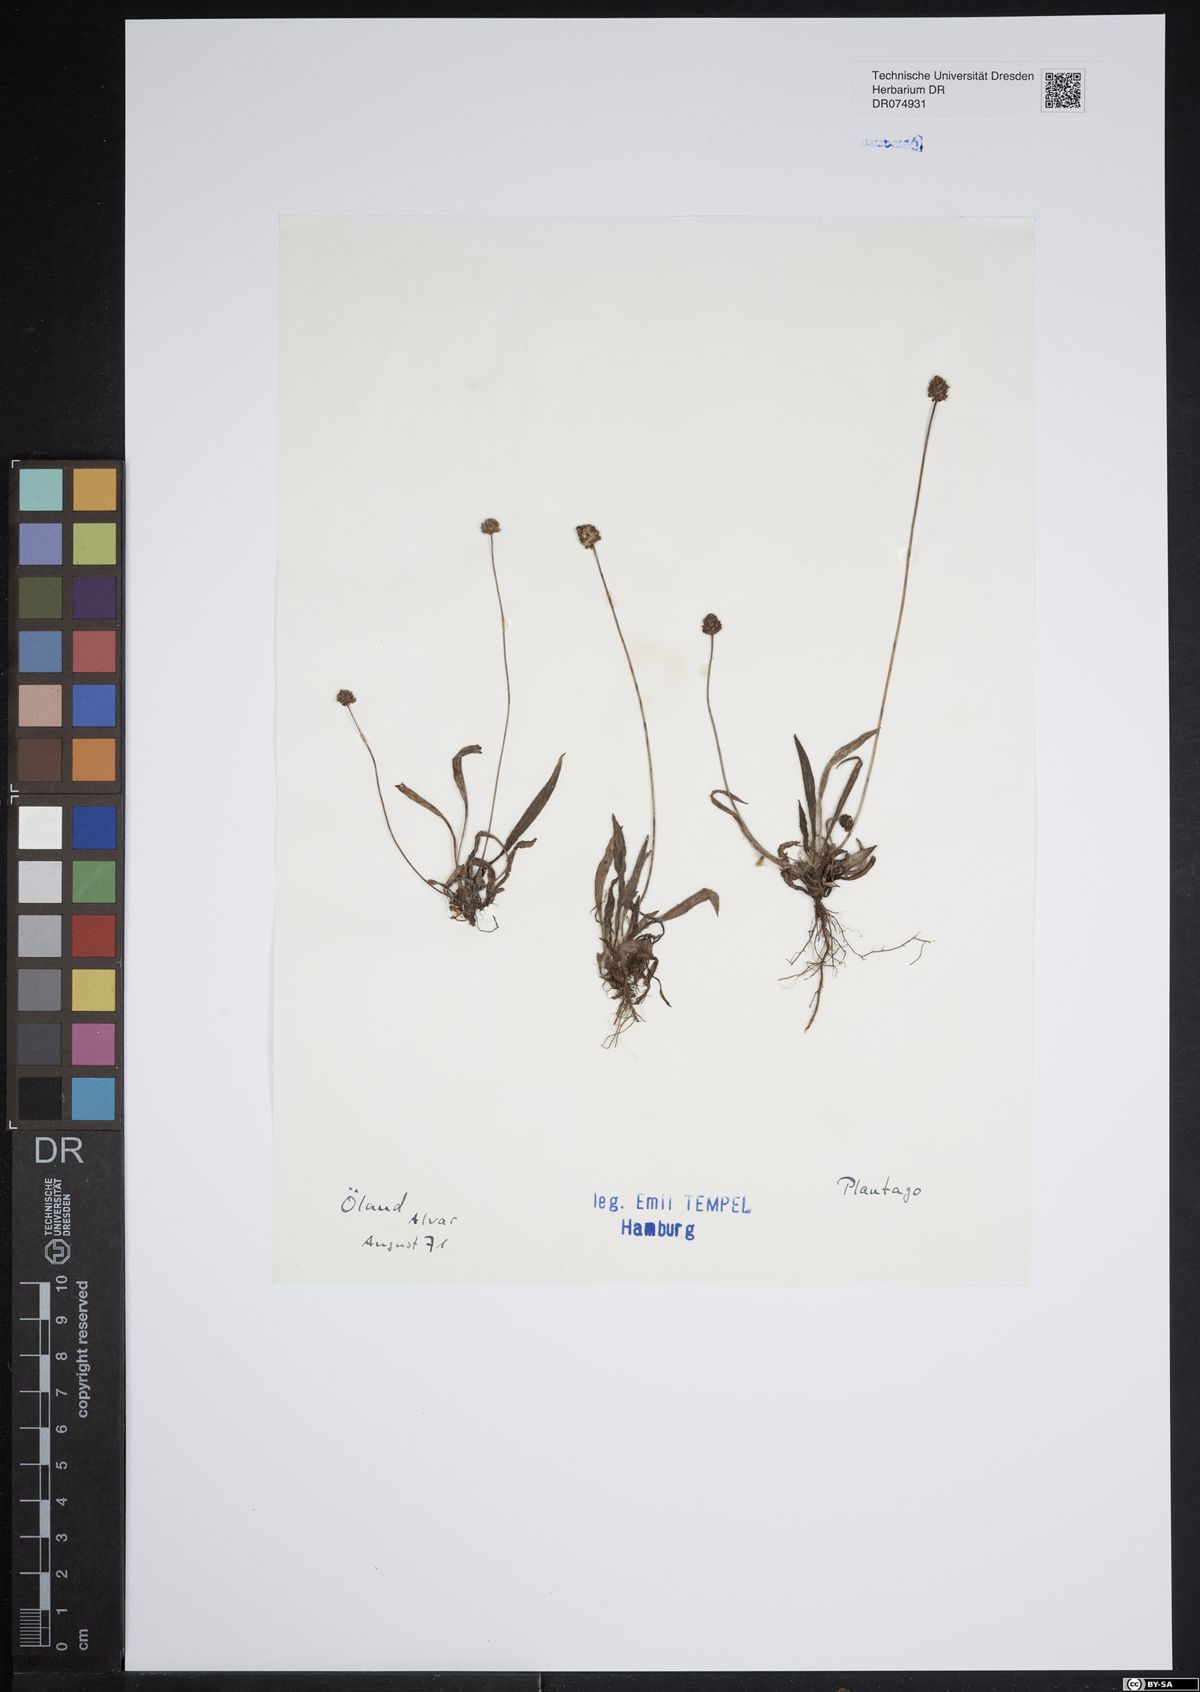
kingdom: Plantae
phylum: Tracheophyta
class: Magnoliopsida
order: Lamiales
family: Plantaginaceae
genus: Plantago
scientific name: Plantago
